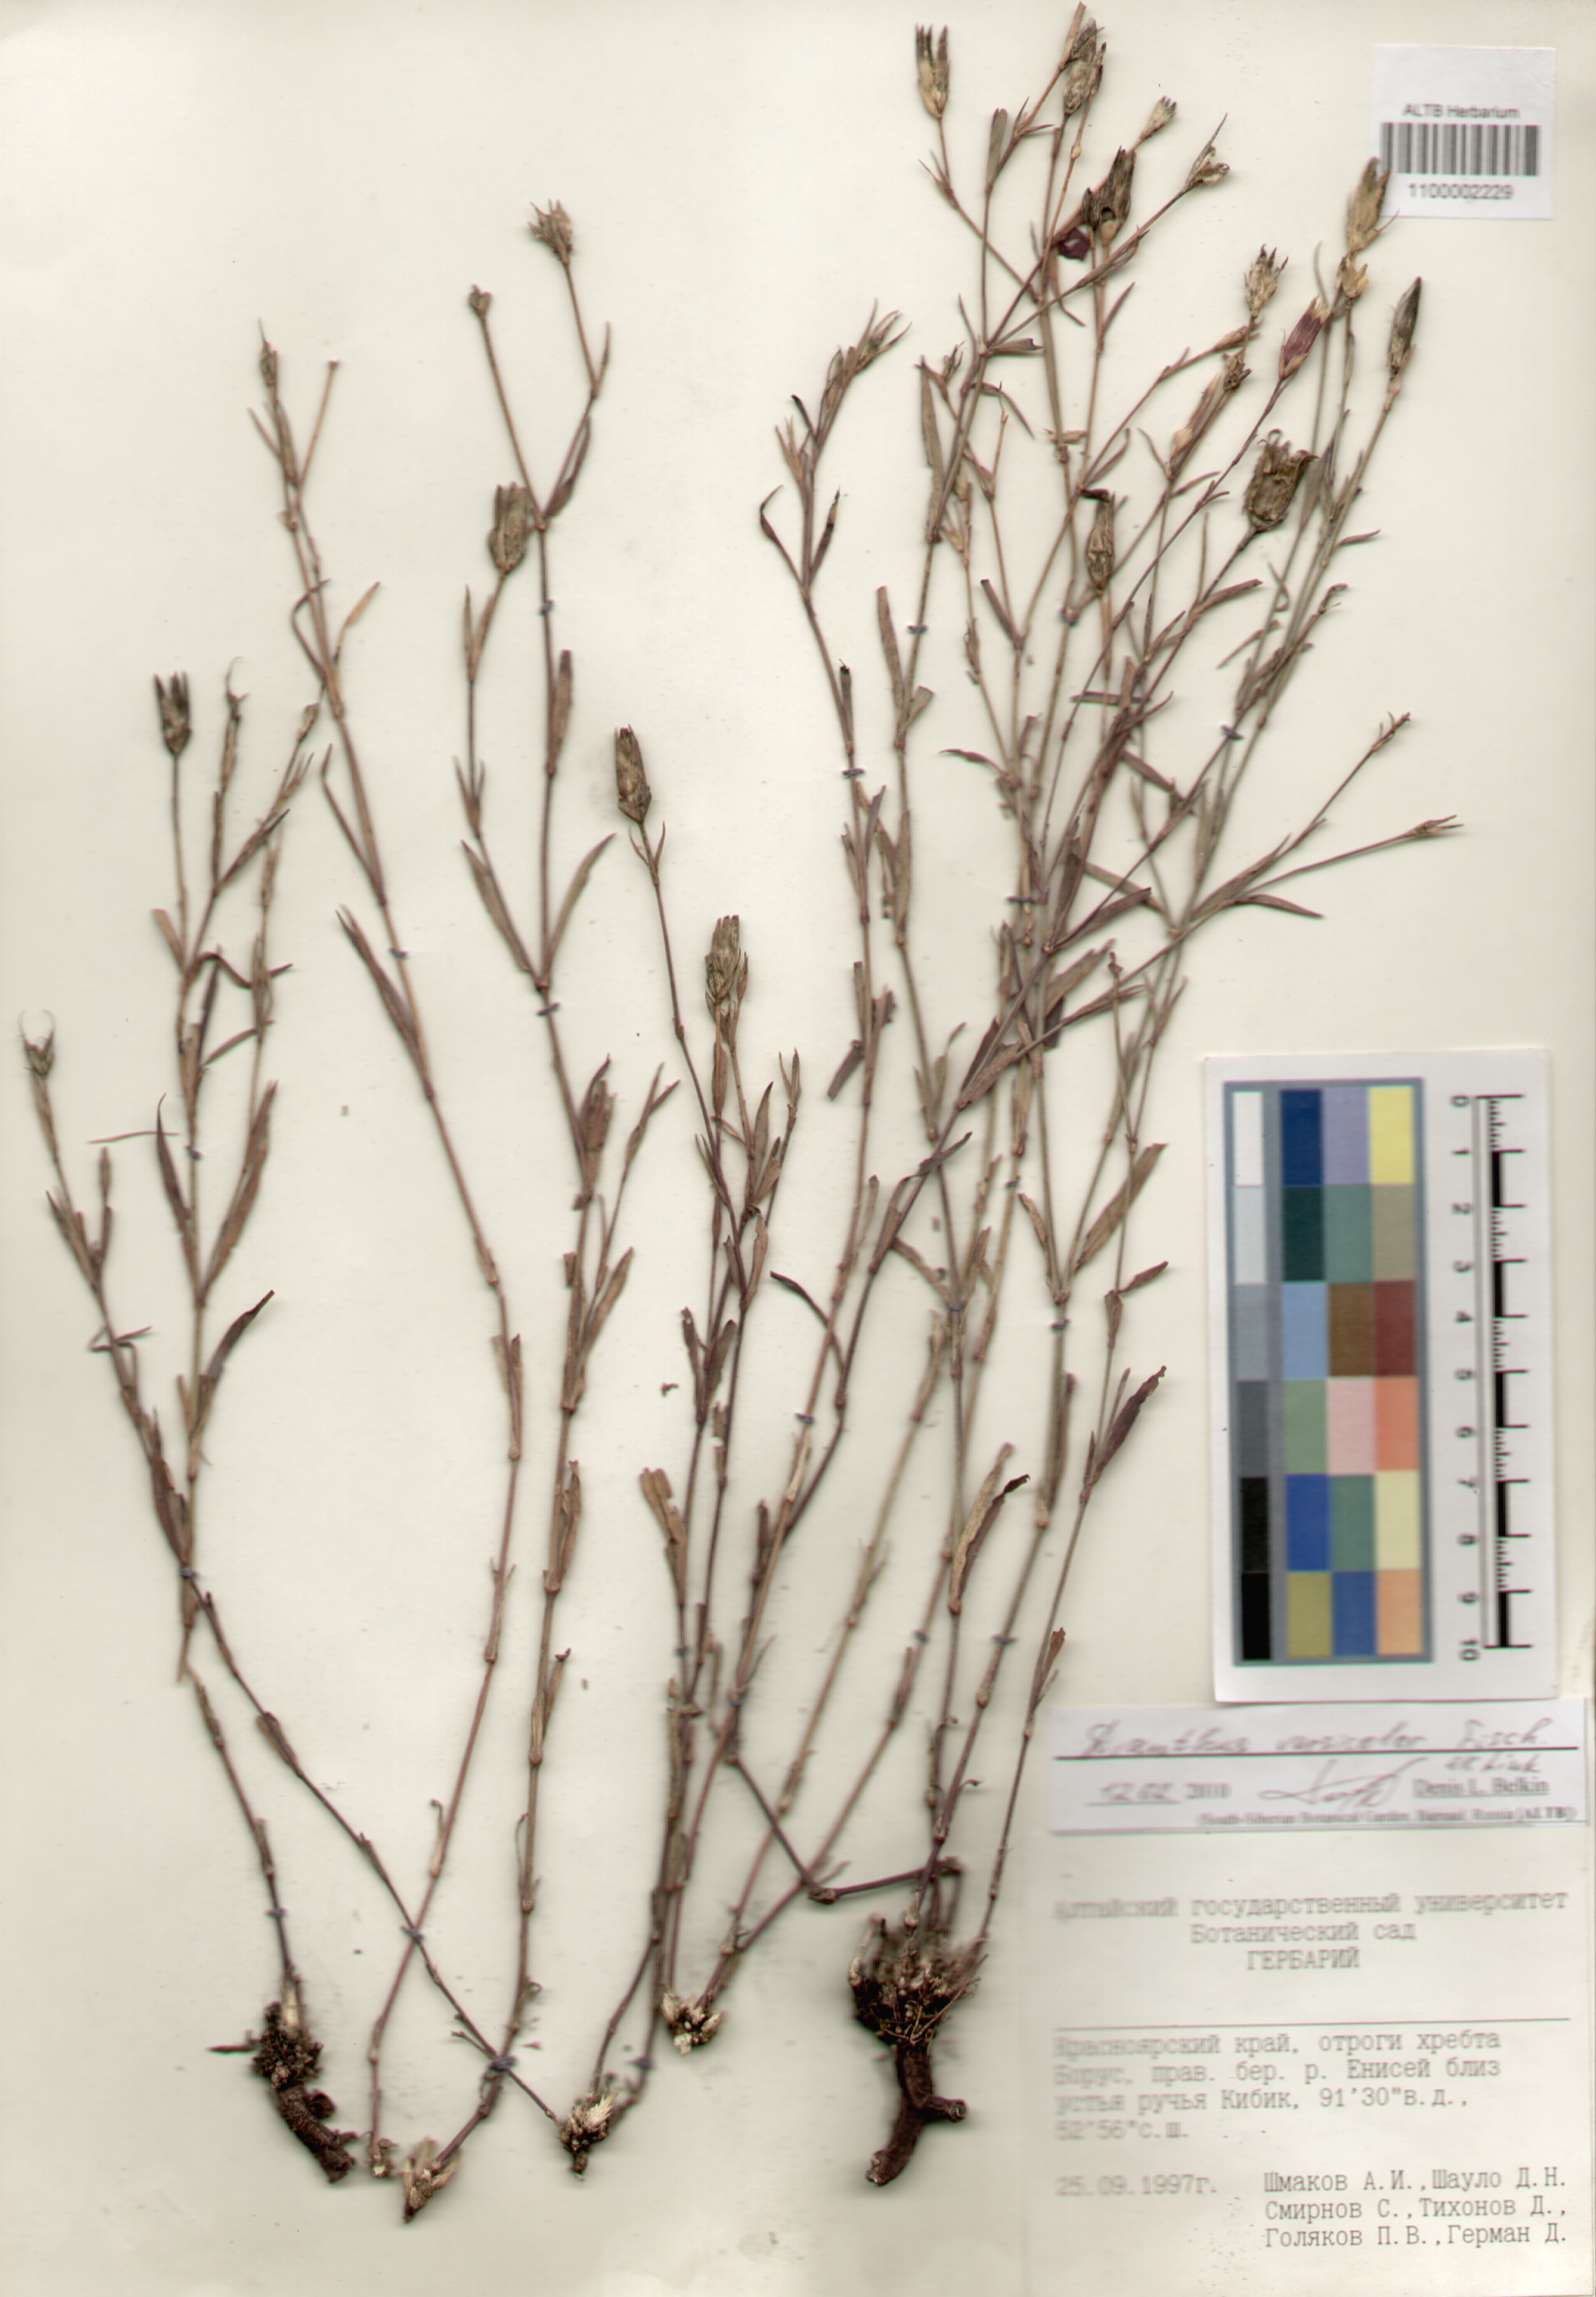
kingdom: Plantae
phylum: Tracheophyta
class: Magnoliopsida
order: Caryophyllales
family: Caryophyllaceae
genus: Dianthus
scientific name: Dianthus chinensis
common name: Rainbow pink
